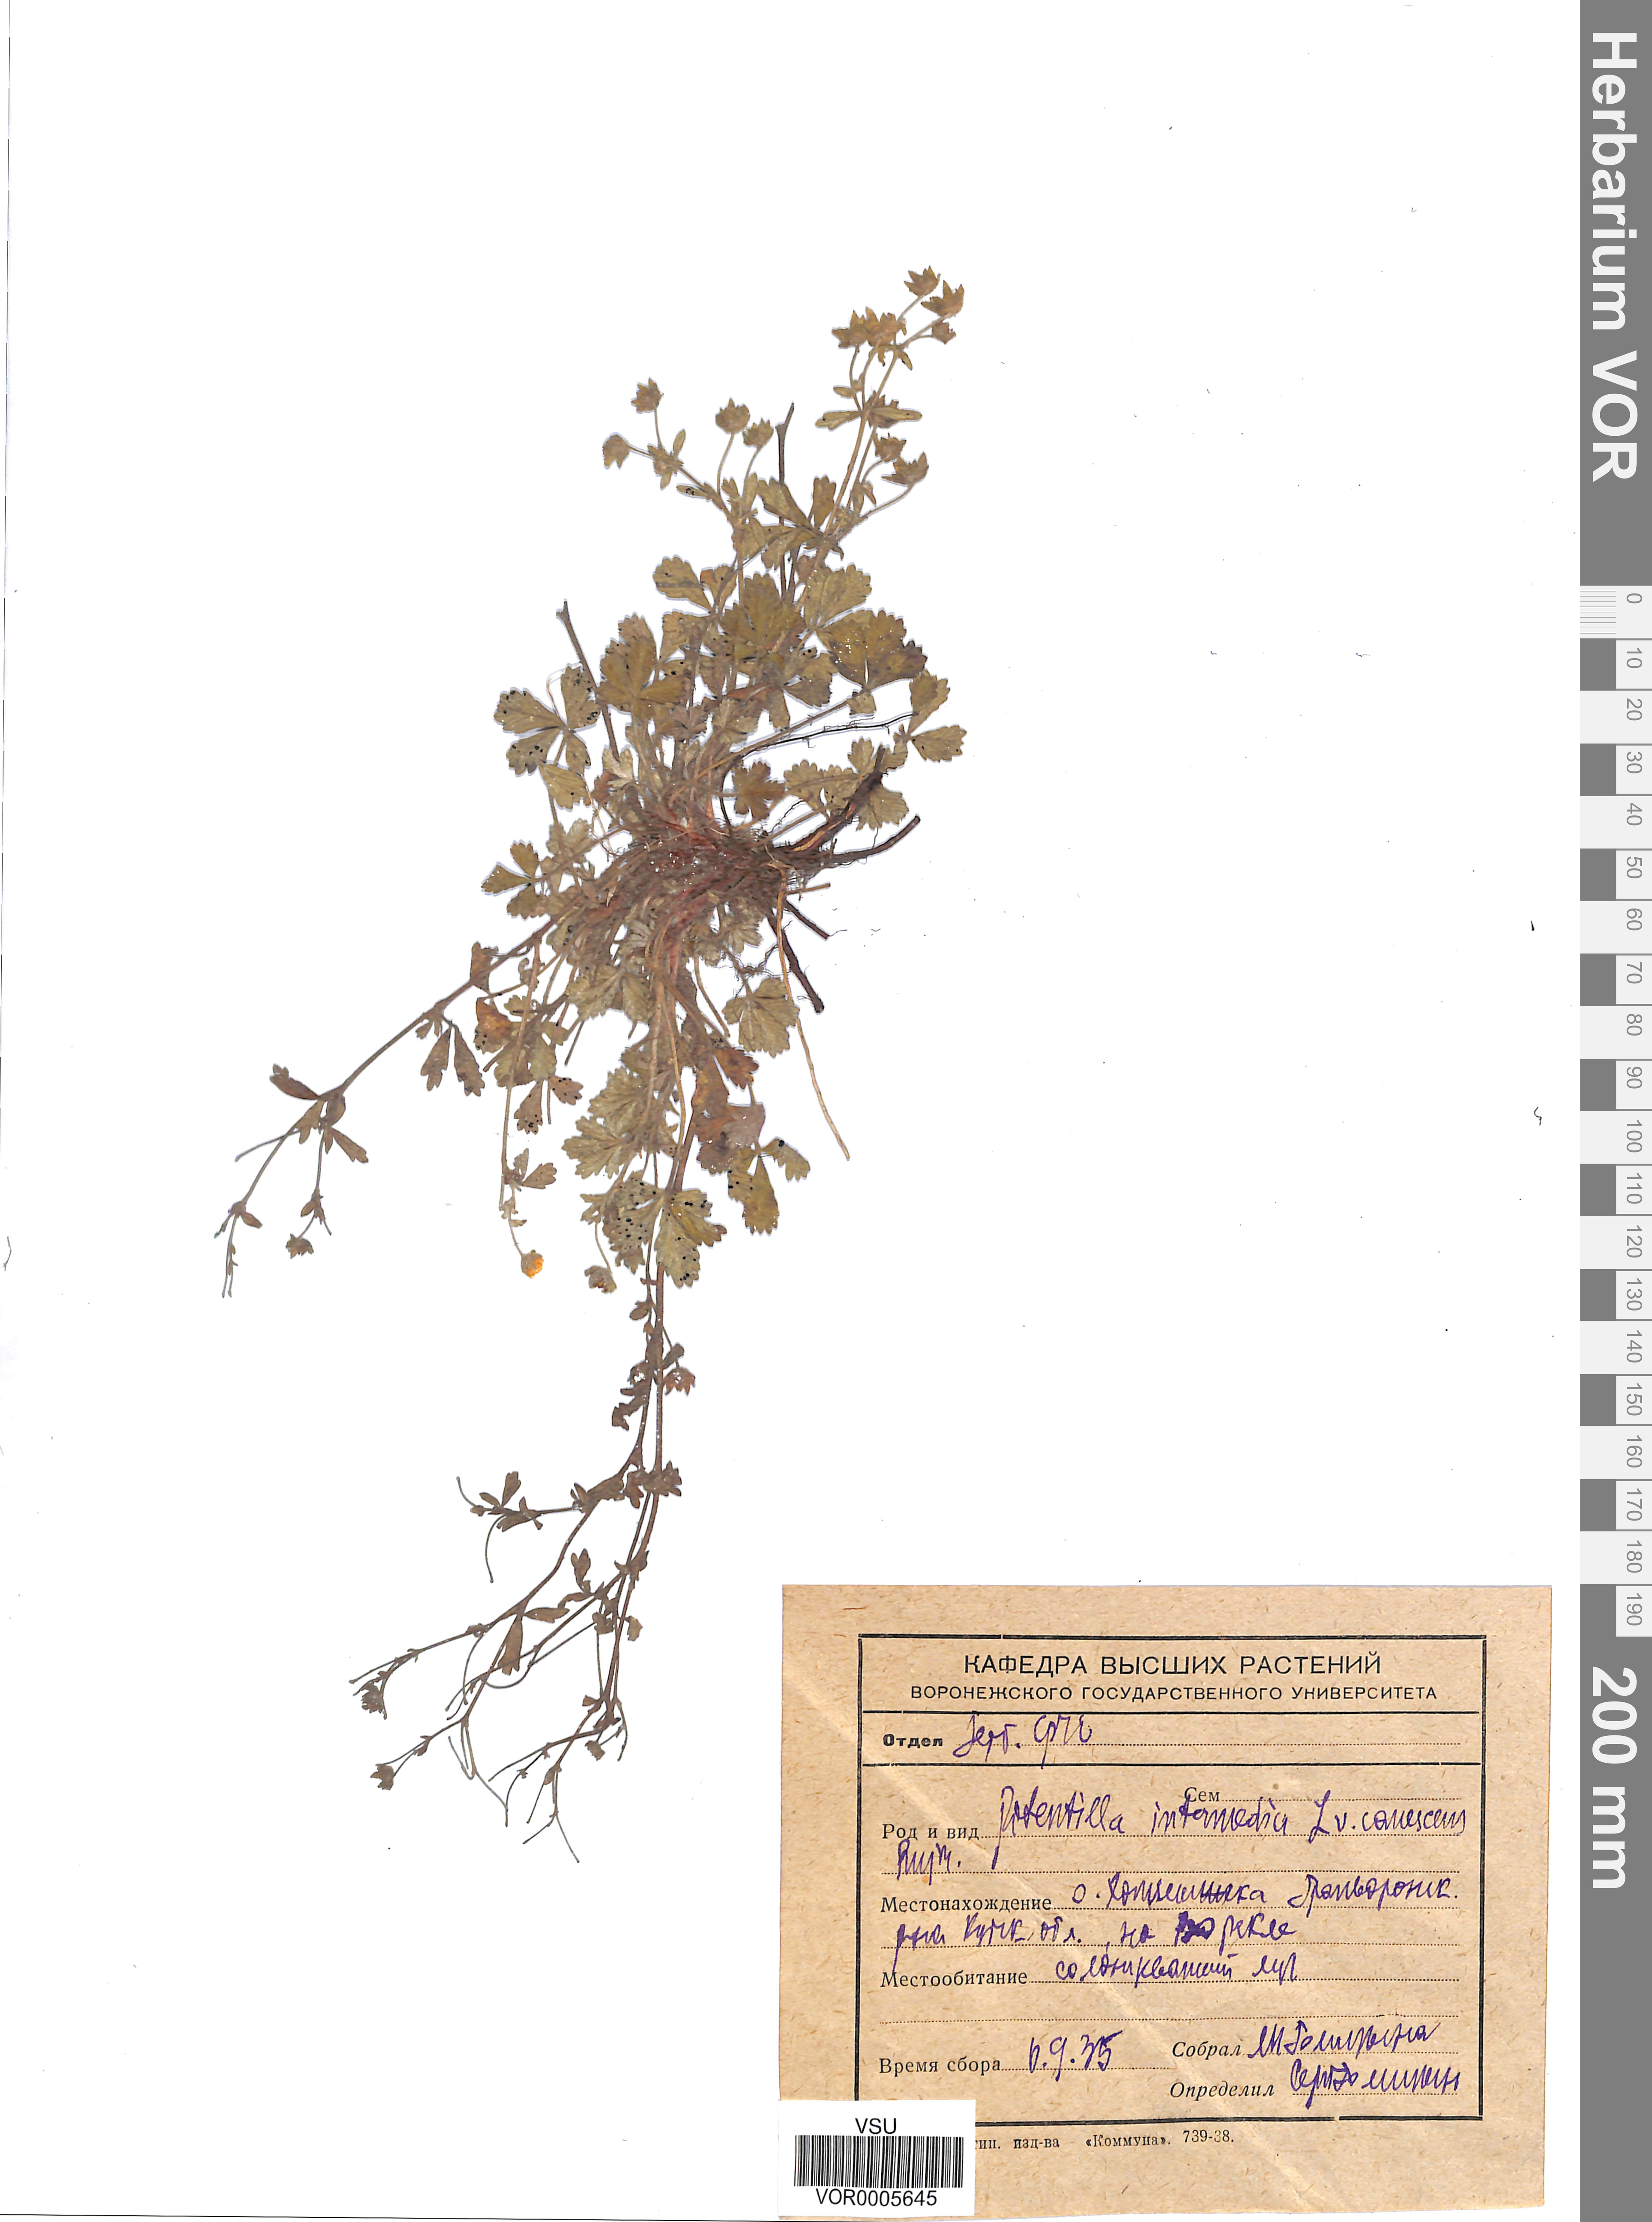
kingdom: Plantae
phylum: Tracheophyta
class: Magnoliopsida
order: Rosales
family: Rosaceae
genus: Potentilla
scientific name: Potentilla collina
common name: Palmleaf cinquefoil
